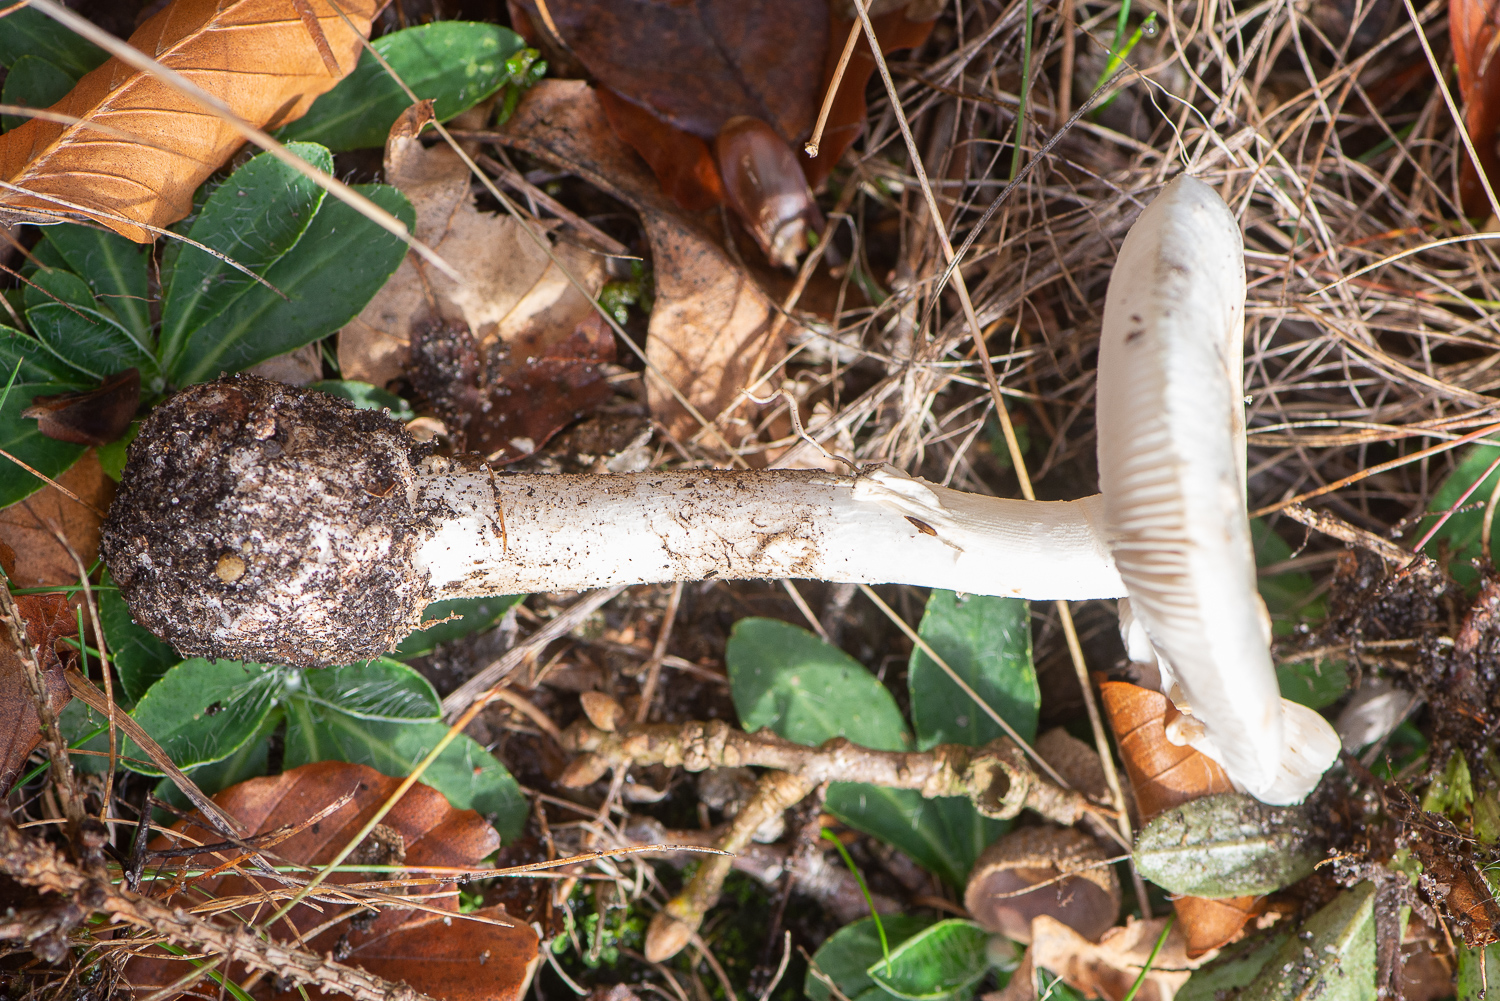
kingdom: Fungi
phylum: Basidiomycota
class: Agaricomycetes
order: Agaricales
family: Amanitaceae
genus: Amanita
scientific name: Amanita citrina
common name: False death-cap
